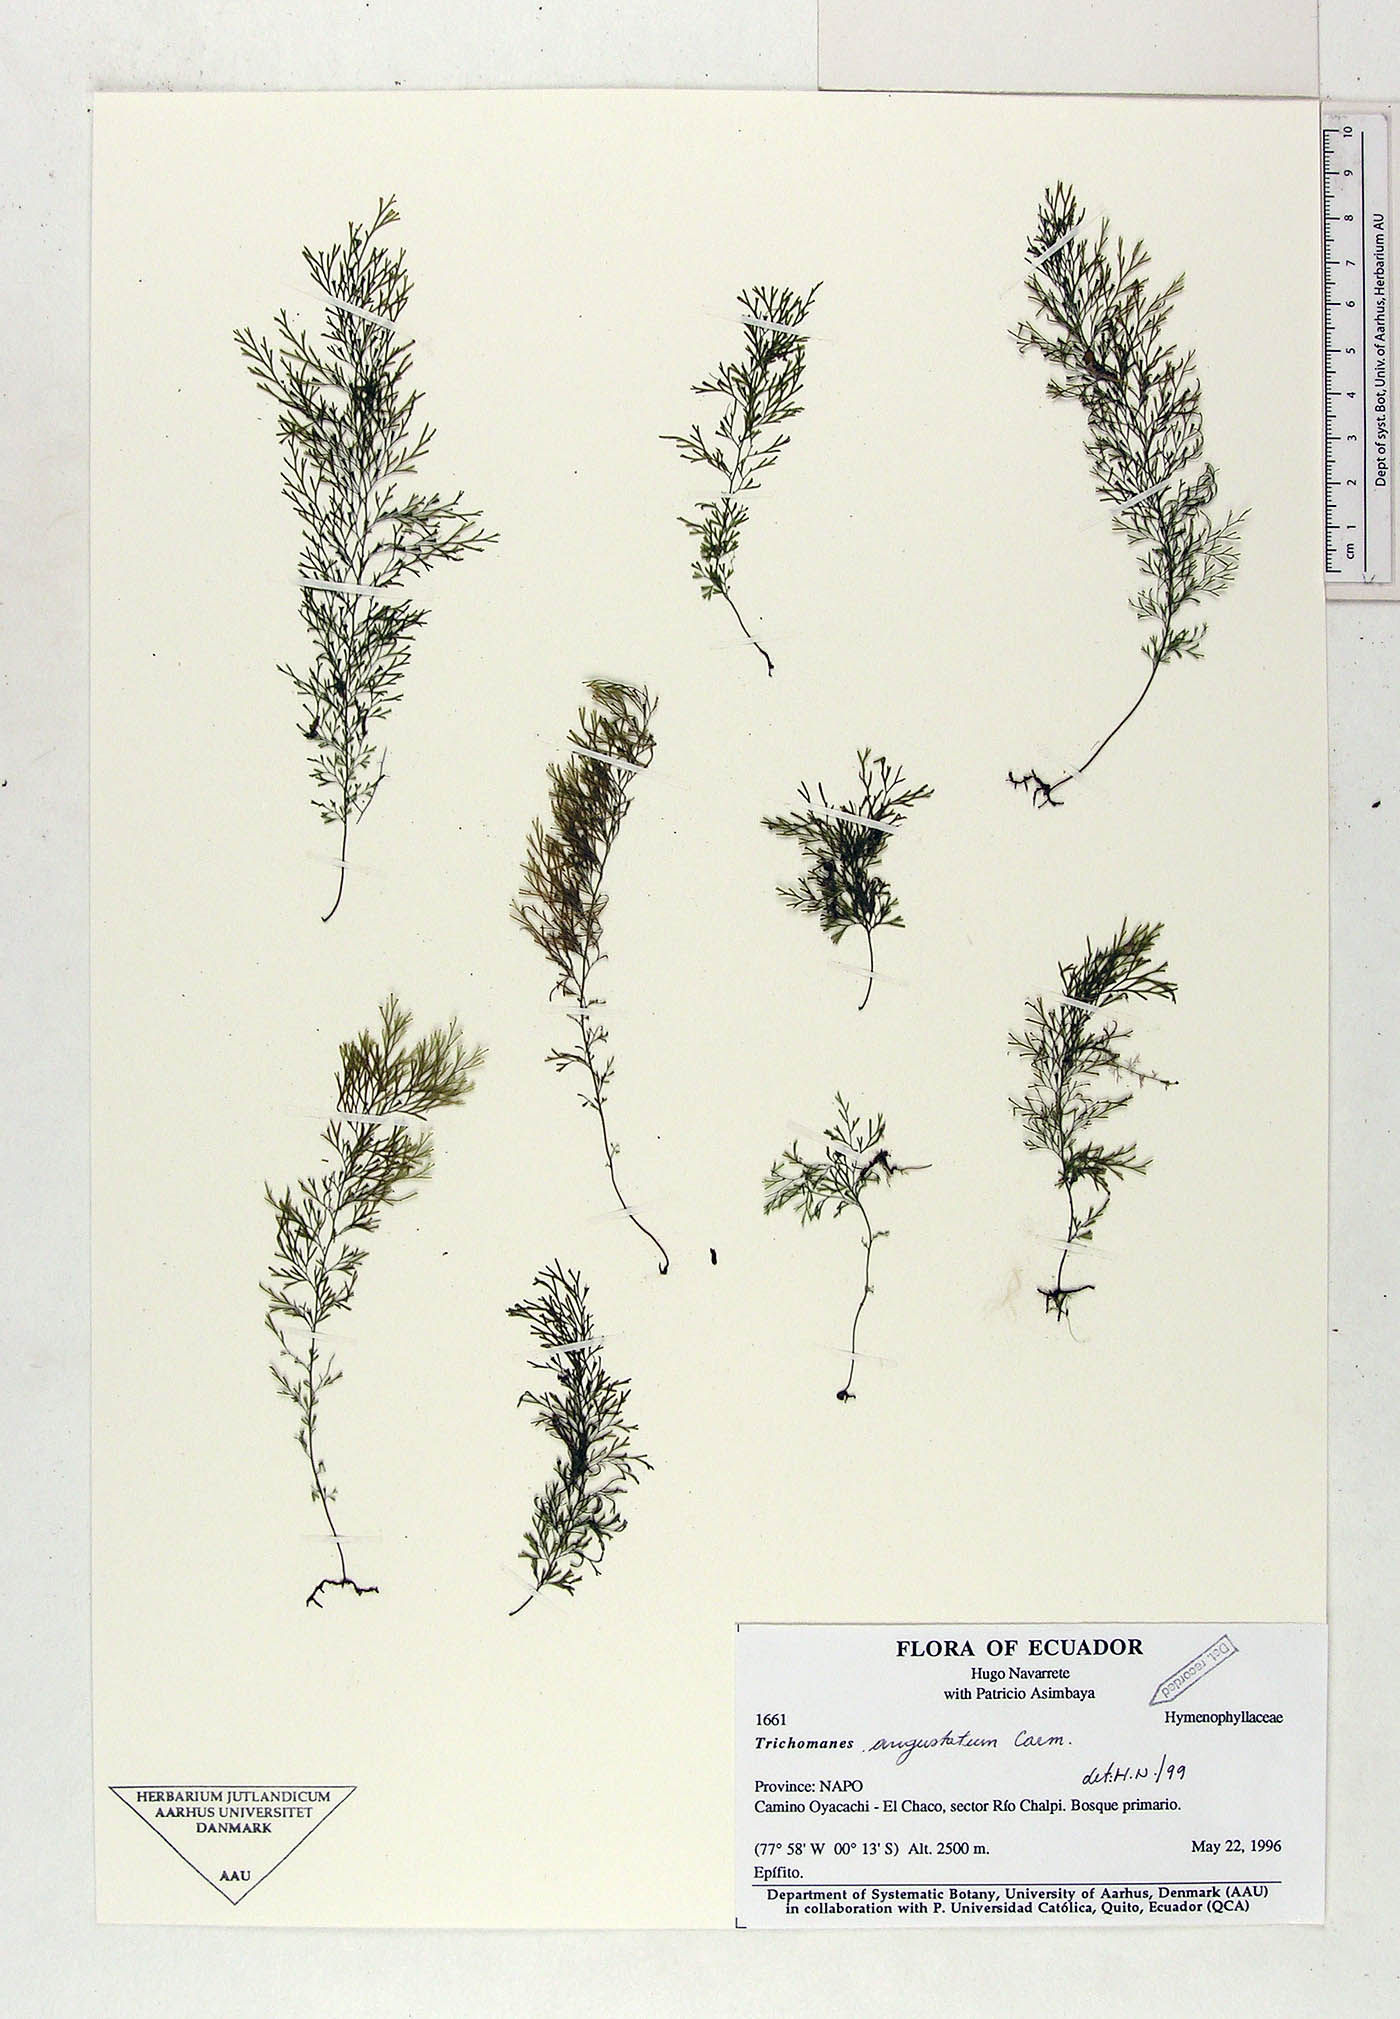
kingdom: Plantae
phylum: Tracheophyta
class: Polypodiopsida
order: Hymenophyllales
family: Hymenophyllaceae
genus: Trichomanes
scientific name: Trichomanes
